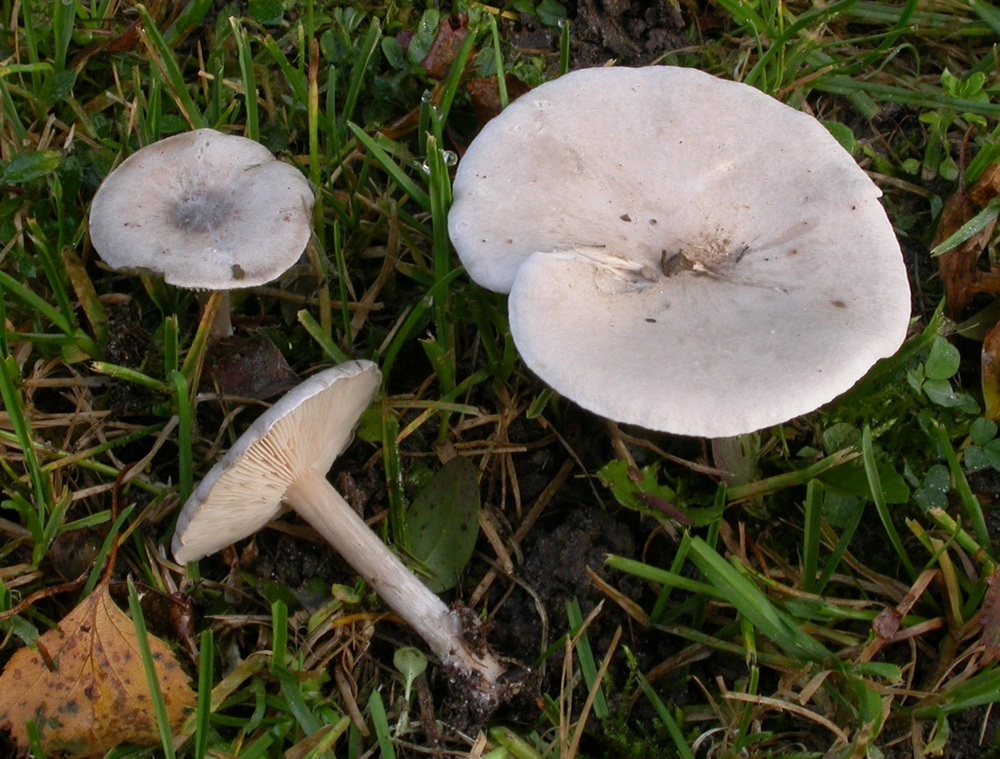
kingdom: Fungi
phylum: Basidiomycota
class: Agaricomycetes
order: Agaricales
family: Tricholomataceae
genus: Melanoleuca
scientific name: Melanoleuca exscissa
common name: gusten munkehat
